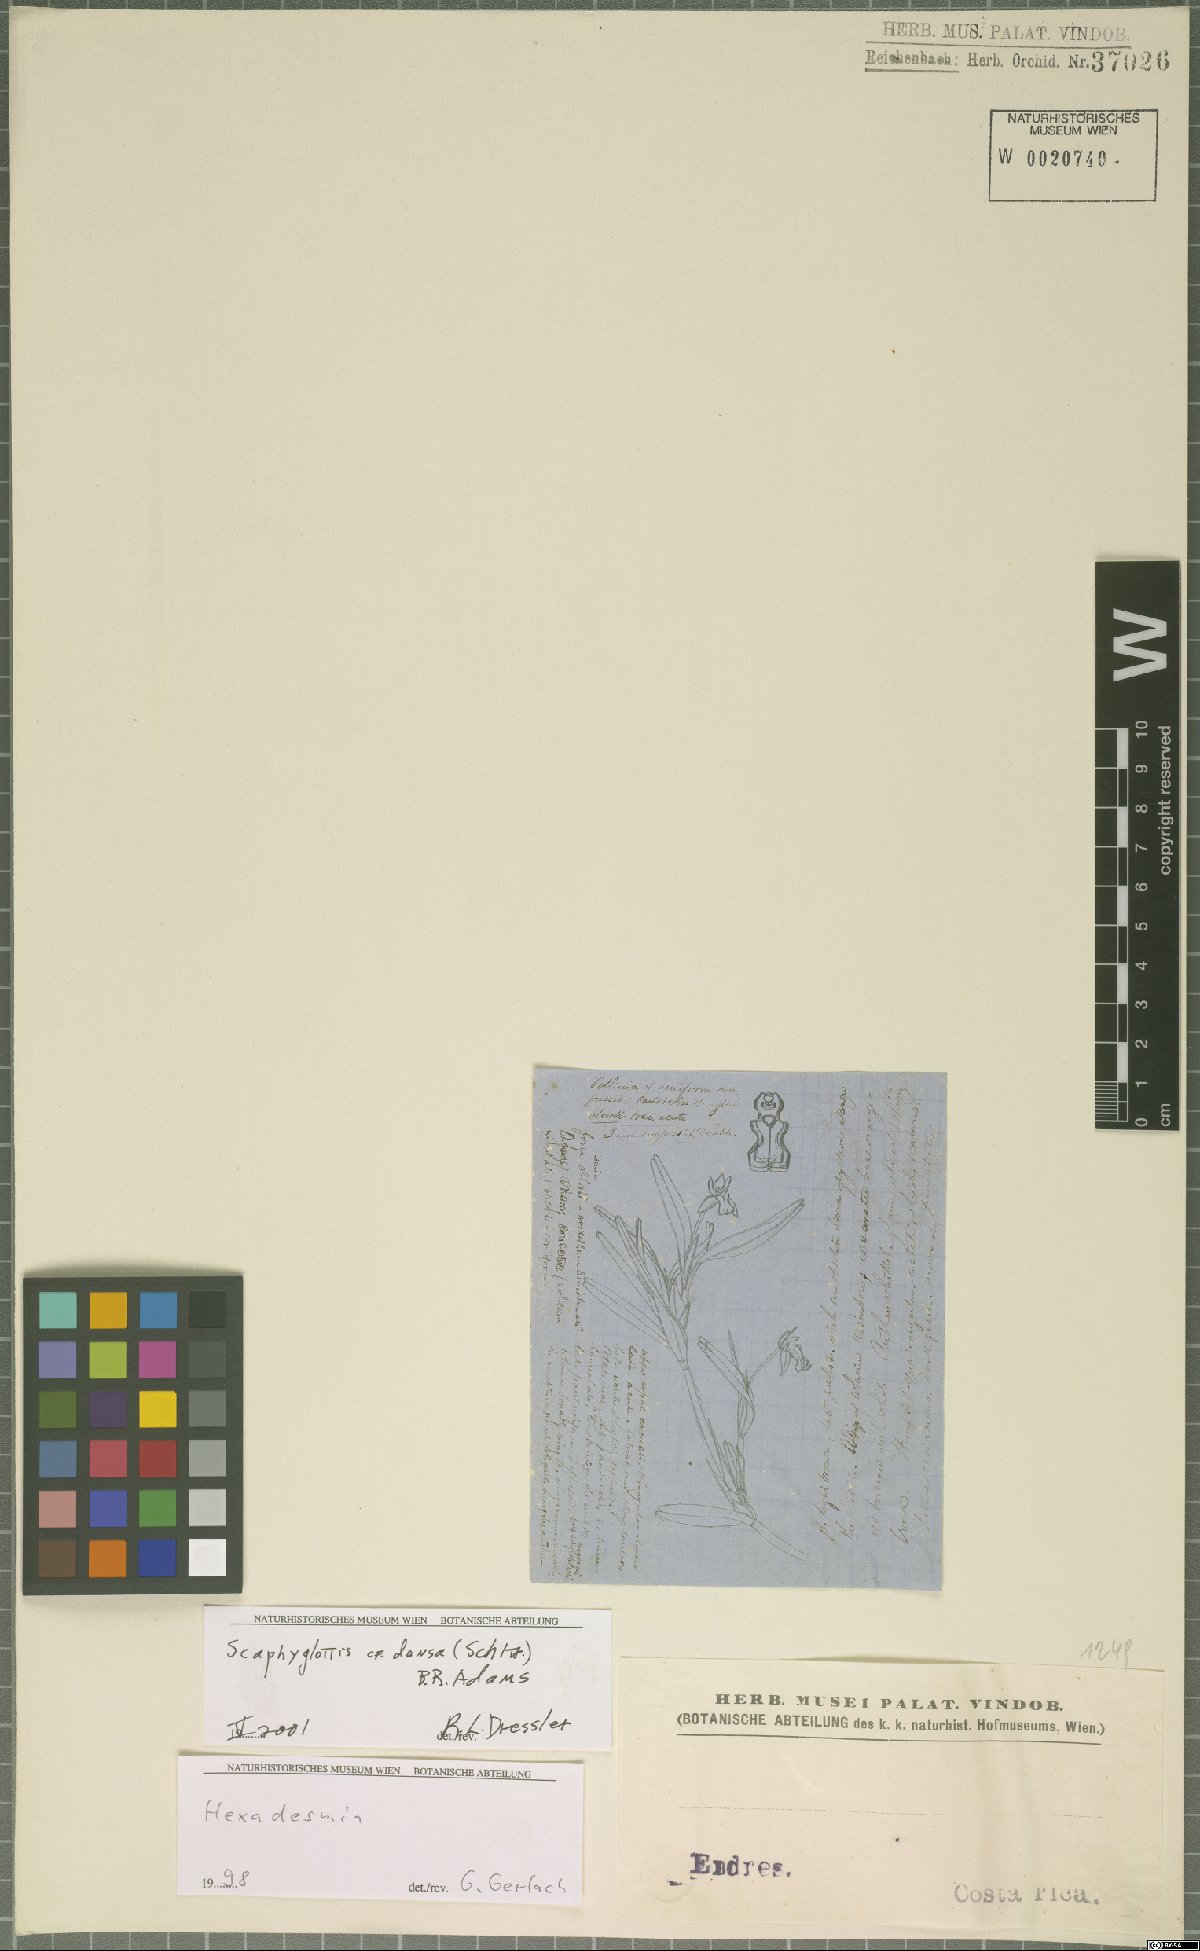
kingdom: Plantae
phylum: Tracheophyta
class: Liliopsida
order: Asparagales
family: Orchidaceae
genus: Scaphyglottis
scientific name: Scaphyglottis densa
